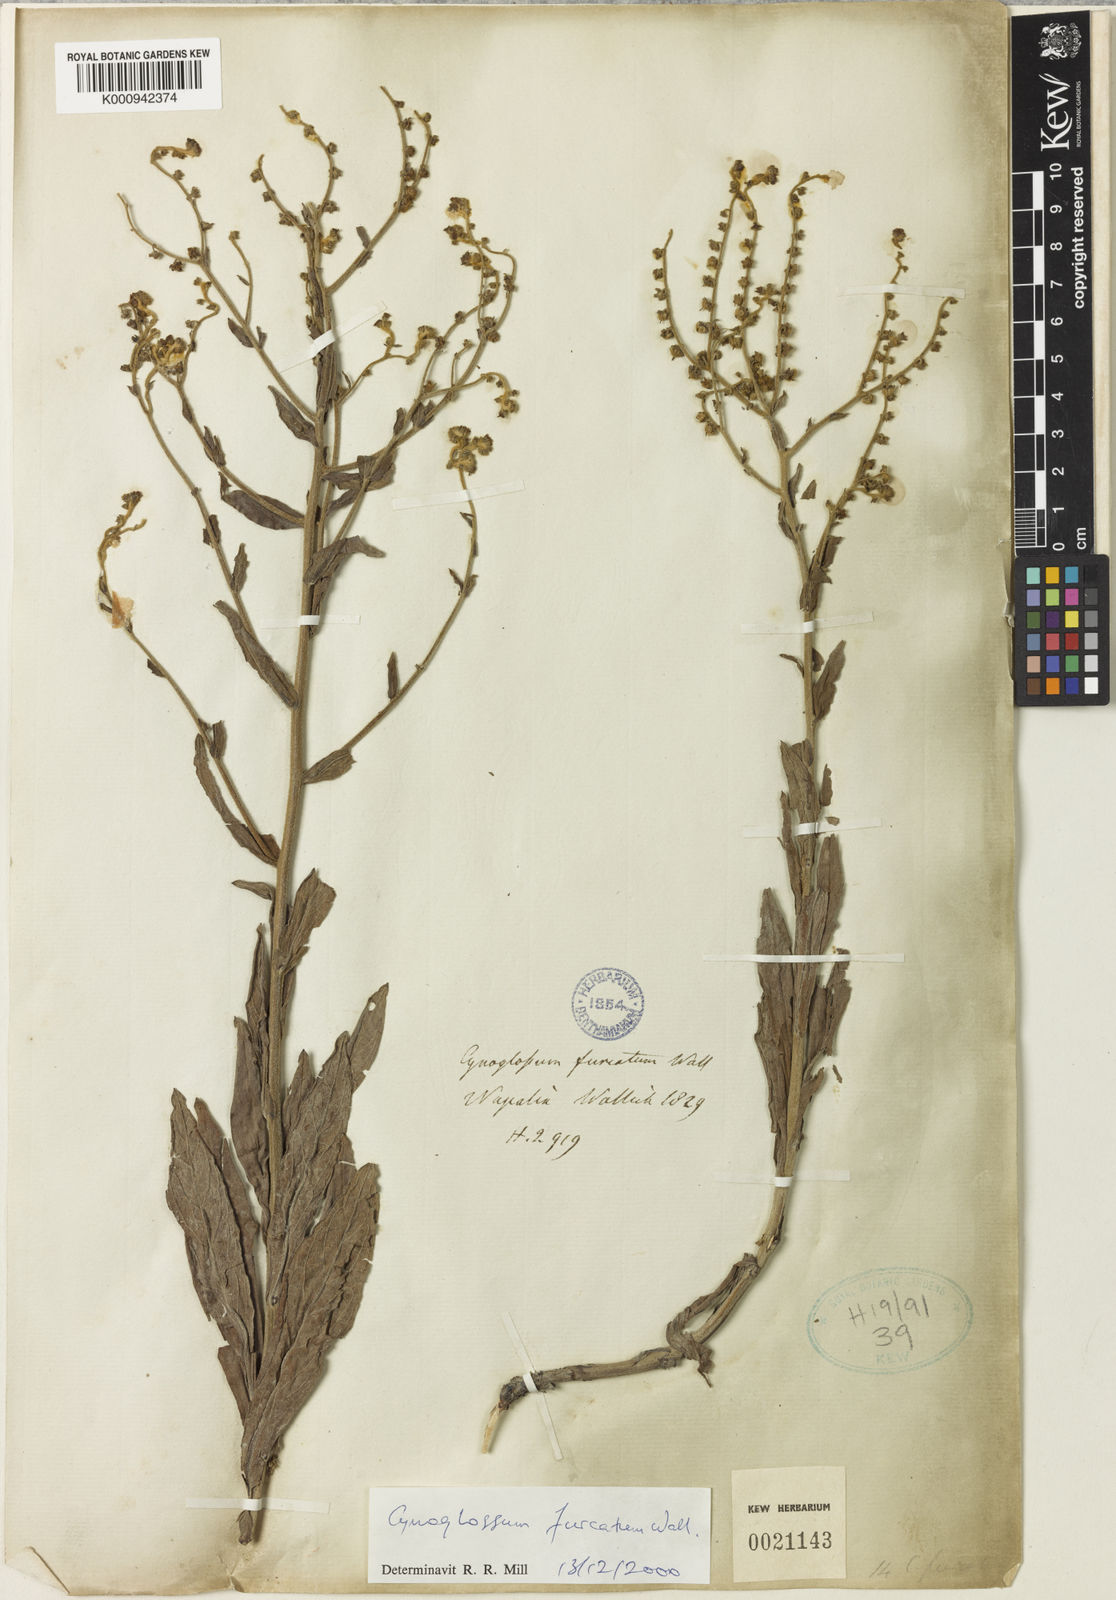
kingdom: Plantae
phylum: Tracheophyta
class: Magnoliopsida
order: Boraginales
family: Boraginaceae
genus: Rochelia
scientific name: Rochelia zeylanica
